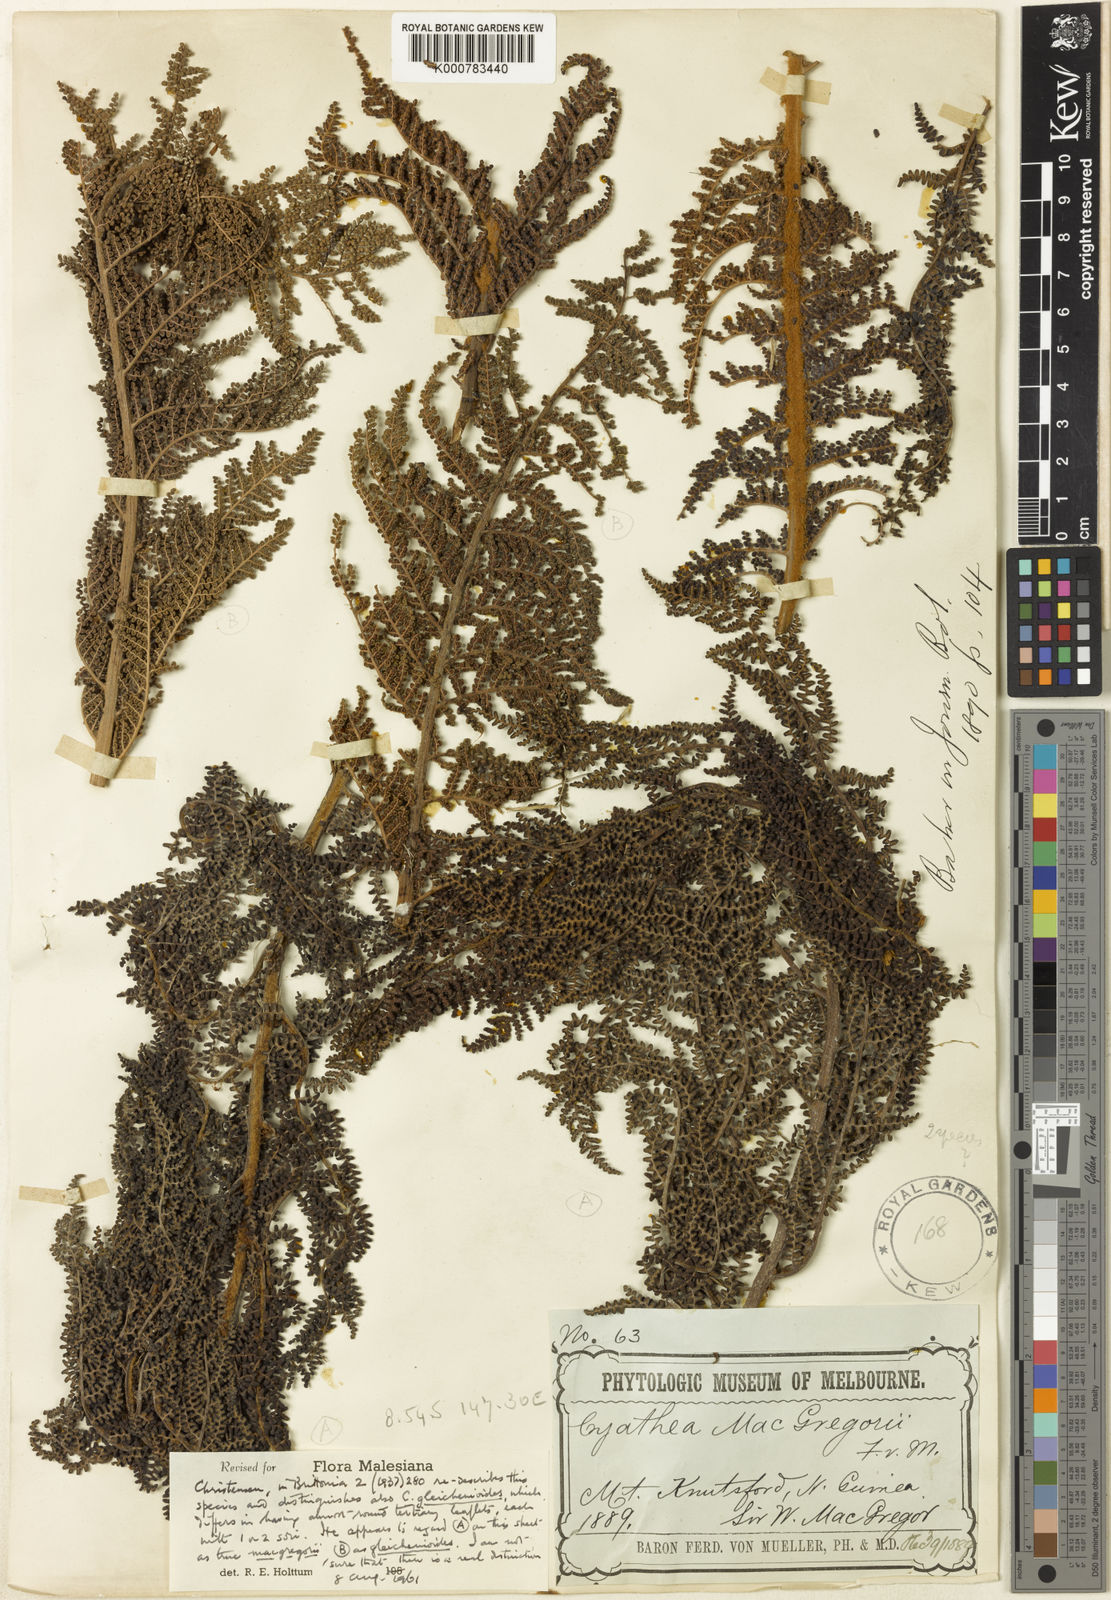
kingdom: Plantae
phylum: Tracheophyta
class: Polypodiopsida
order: Cyatheales
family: Cyatheaceae
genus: Alsophila
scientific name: Alsophila macgregorii
